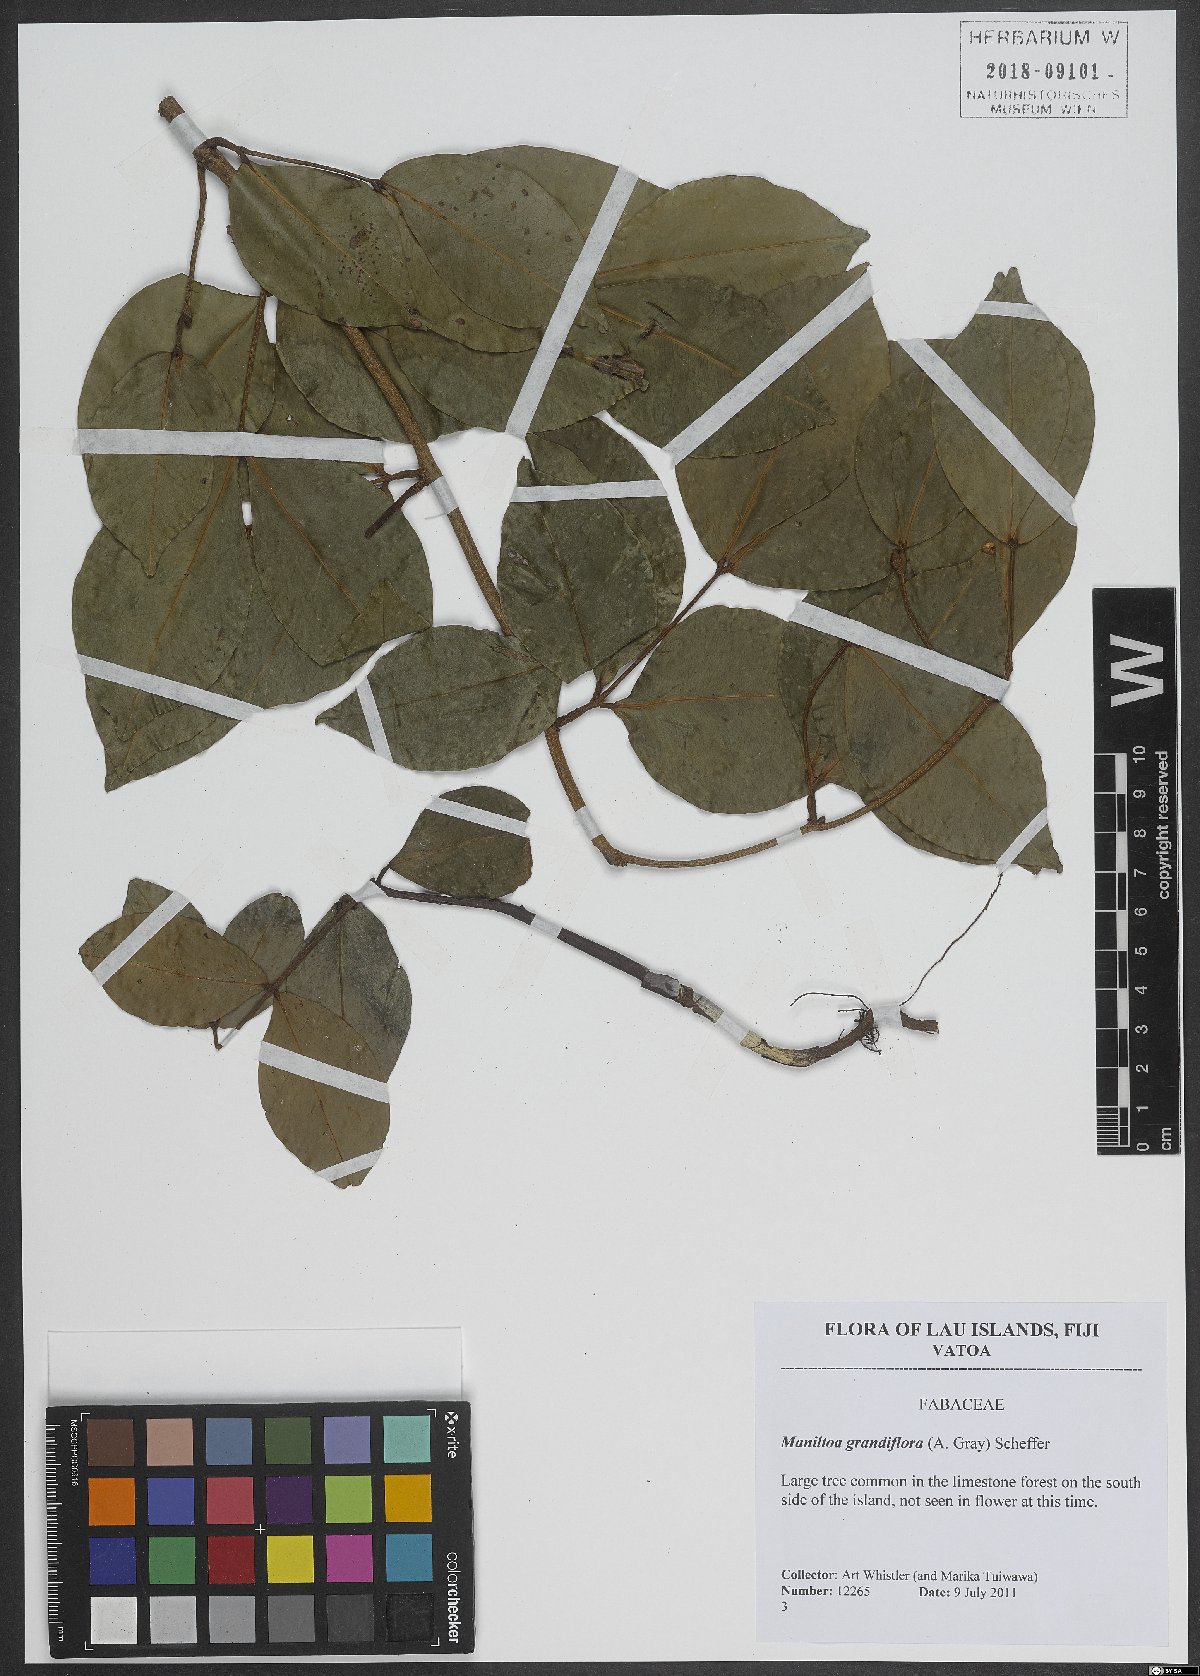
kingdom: Plantae
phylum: Tracheophyta
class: Magnoliopsida
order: Fabales
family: Fabaceae
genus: Cynometra
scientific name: Cynometra grandiflora
